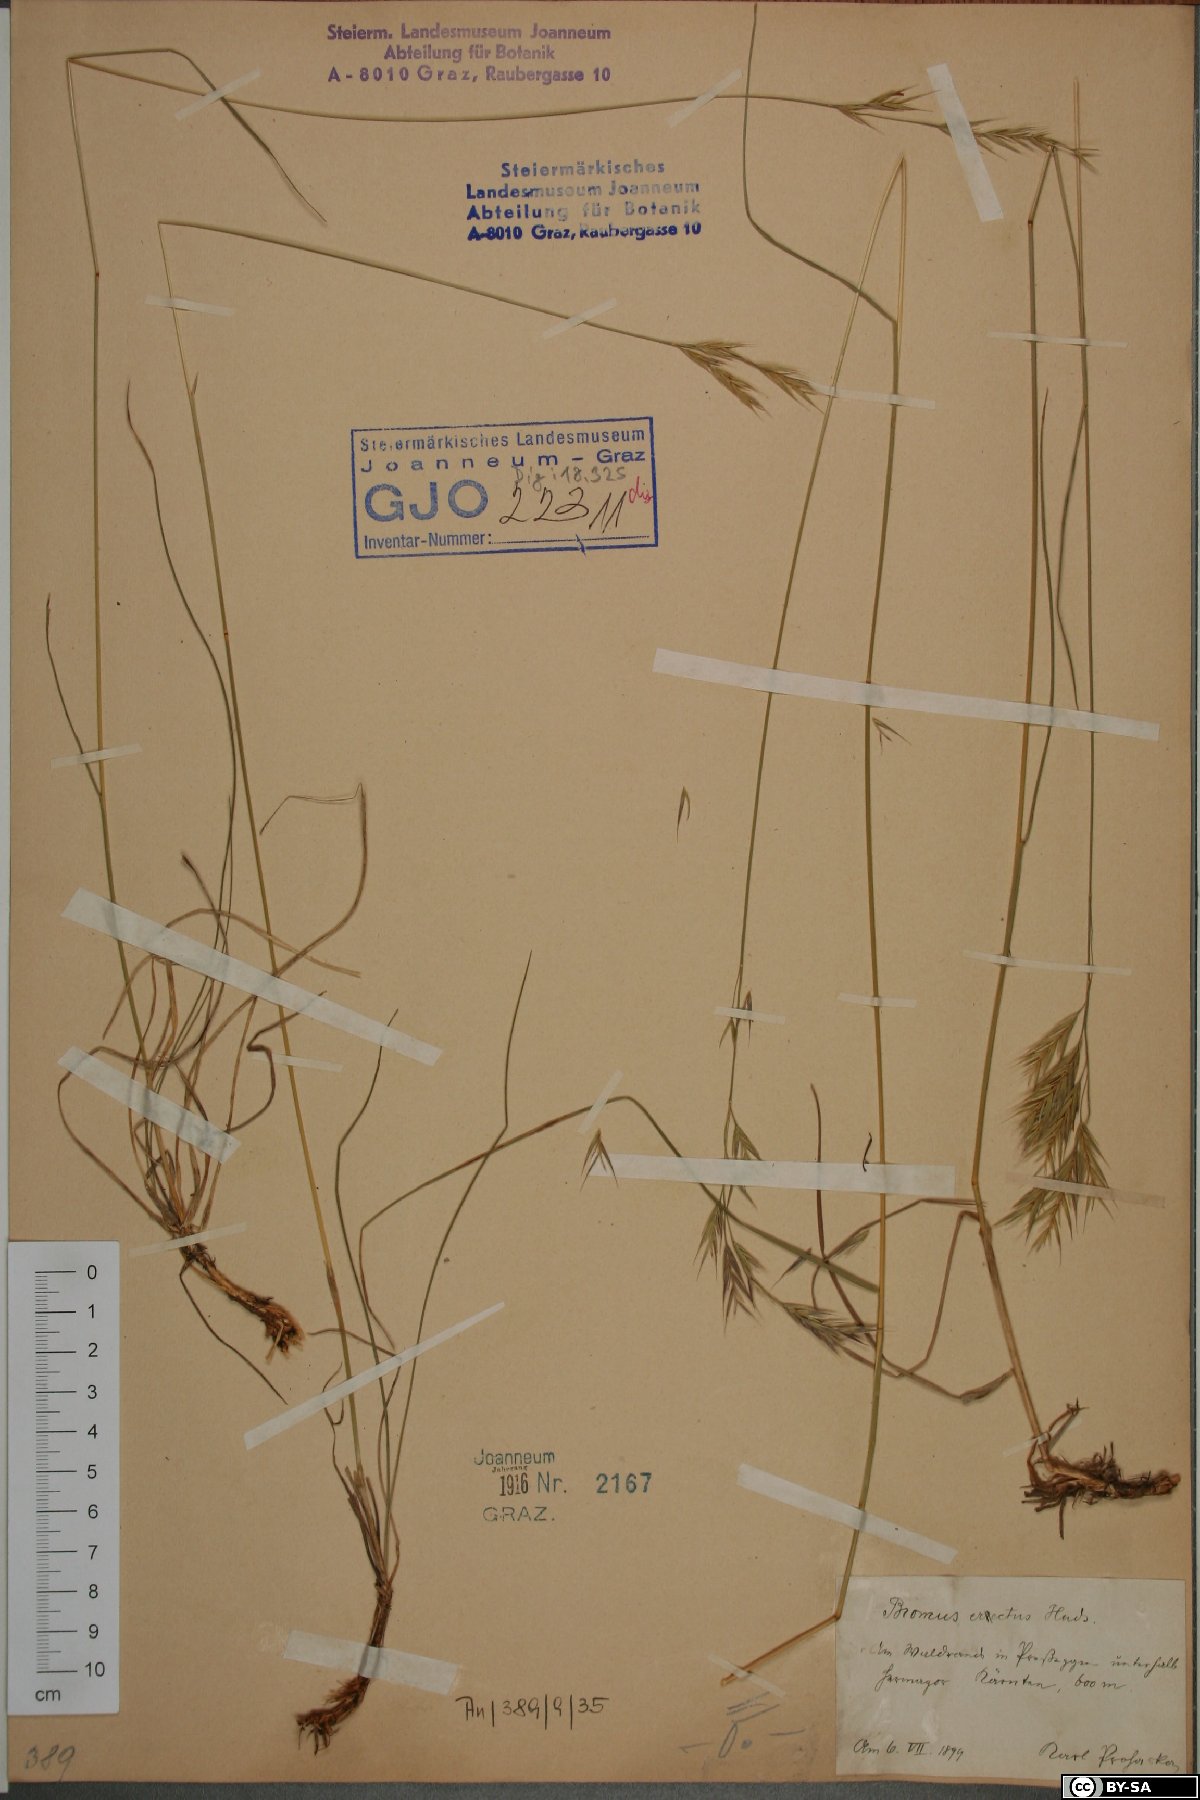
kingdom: Plantae
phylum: Tracheophyta
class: Liliopsida
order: Poales
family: Poaceae
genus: Bromus
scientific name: Bromus erectus
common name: Erect brome
